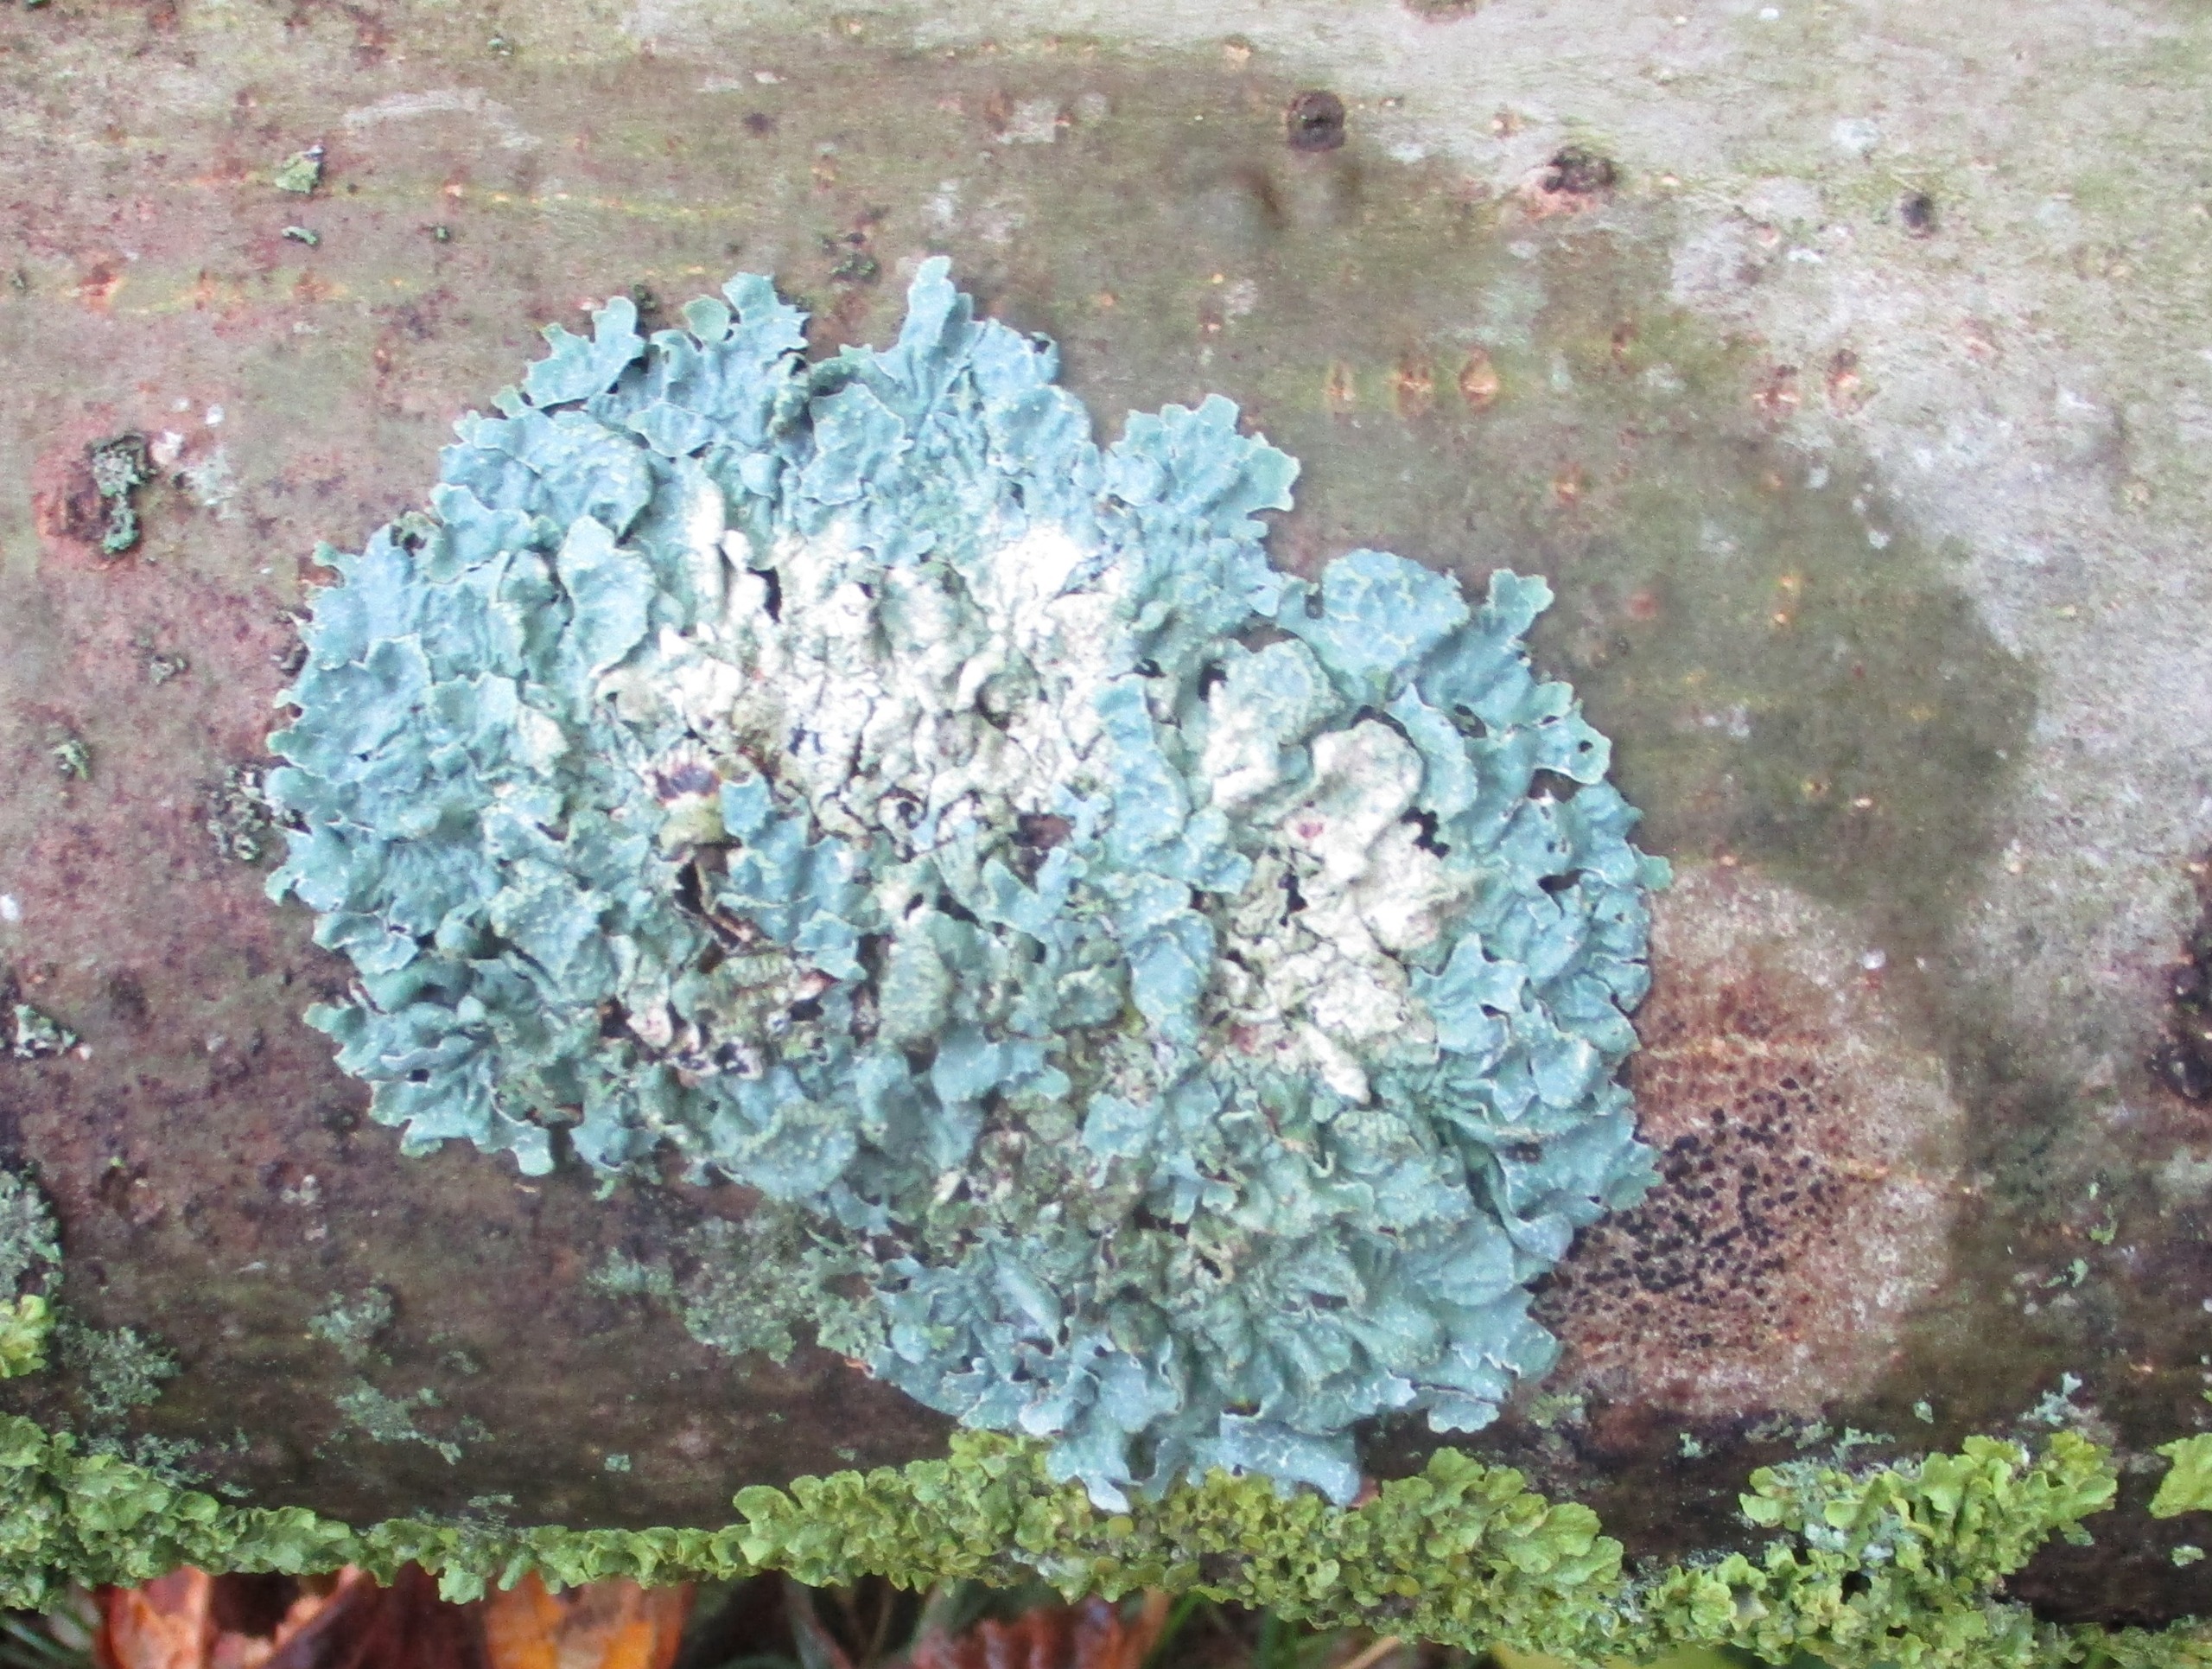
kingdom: Fungi
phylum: Ascomycota
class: Lecanoromycetes
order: Lecanorales
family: Parmeliaceae
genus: Parmelia
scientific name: Parmelia sulcata
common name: Rynket skållav
